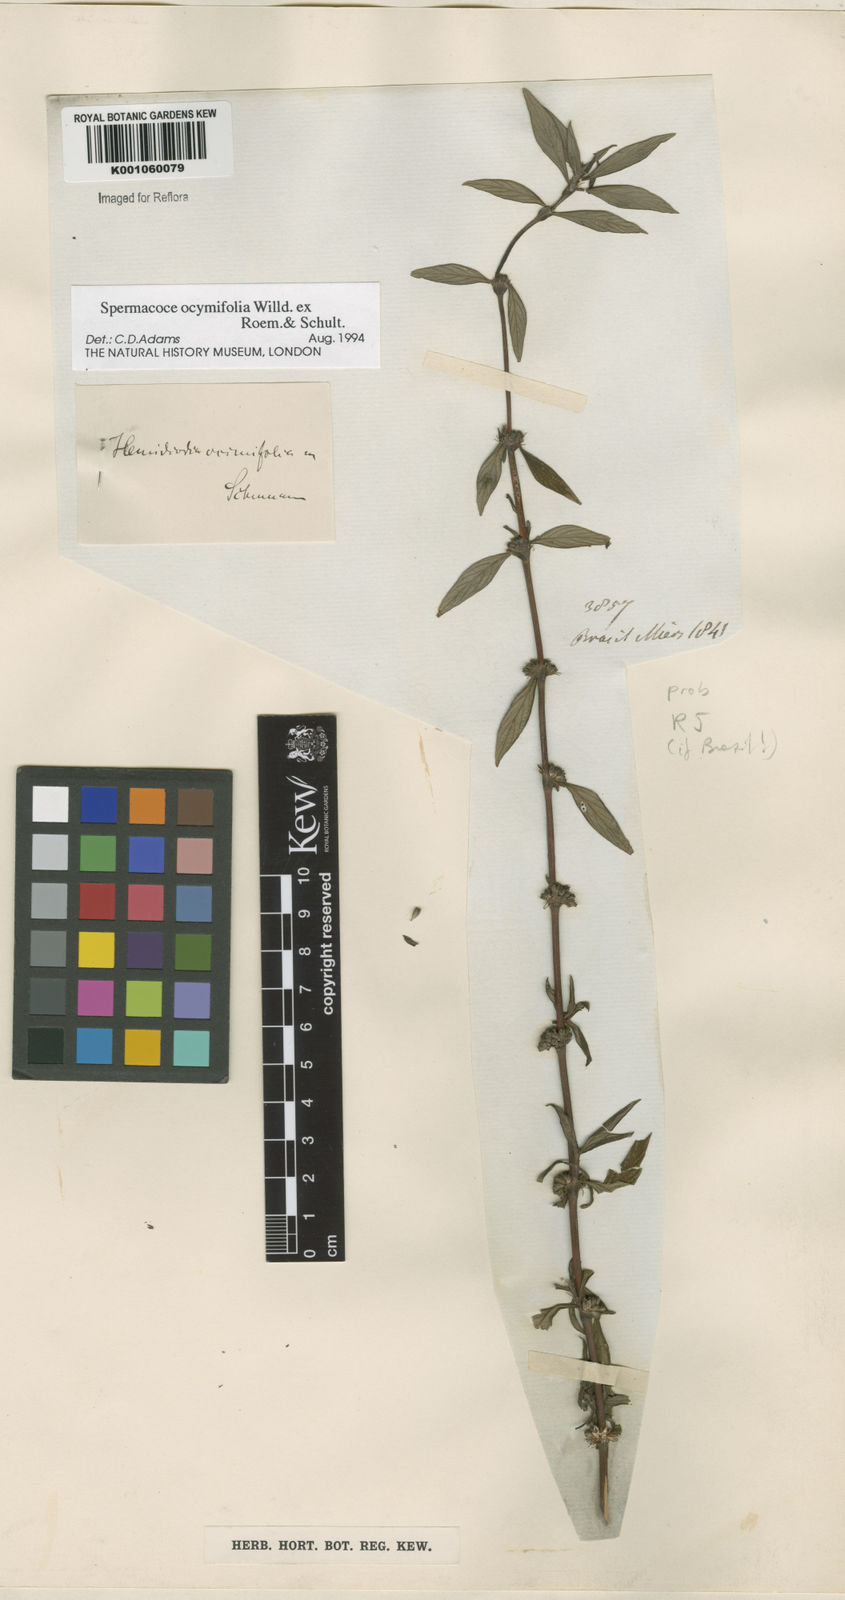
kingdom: Plantae
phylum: Tracheophyta
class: Magnoliopsida
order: Gentianales
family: Rubiaceae
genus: Spermacoce
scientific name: Spermacoce
